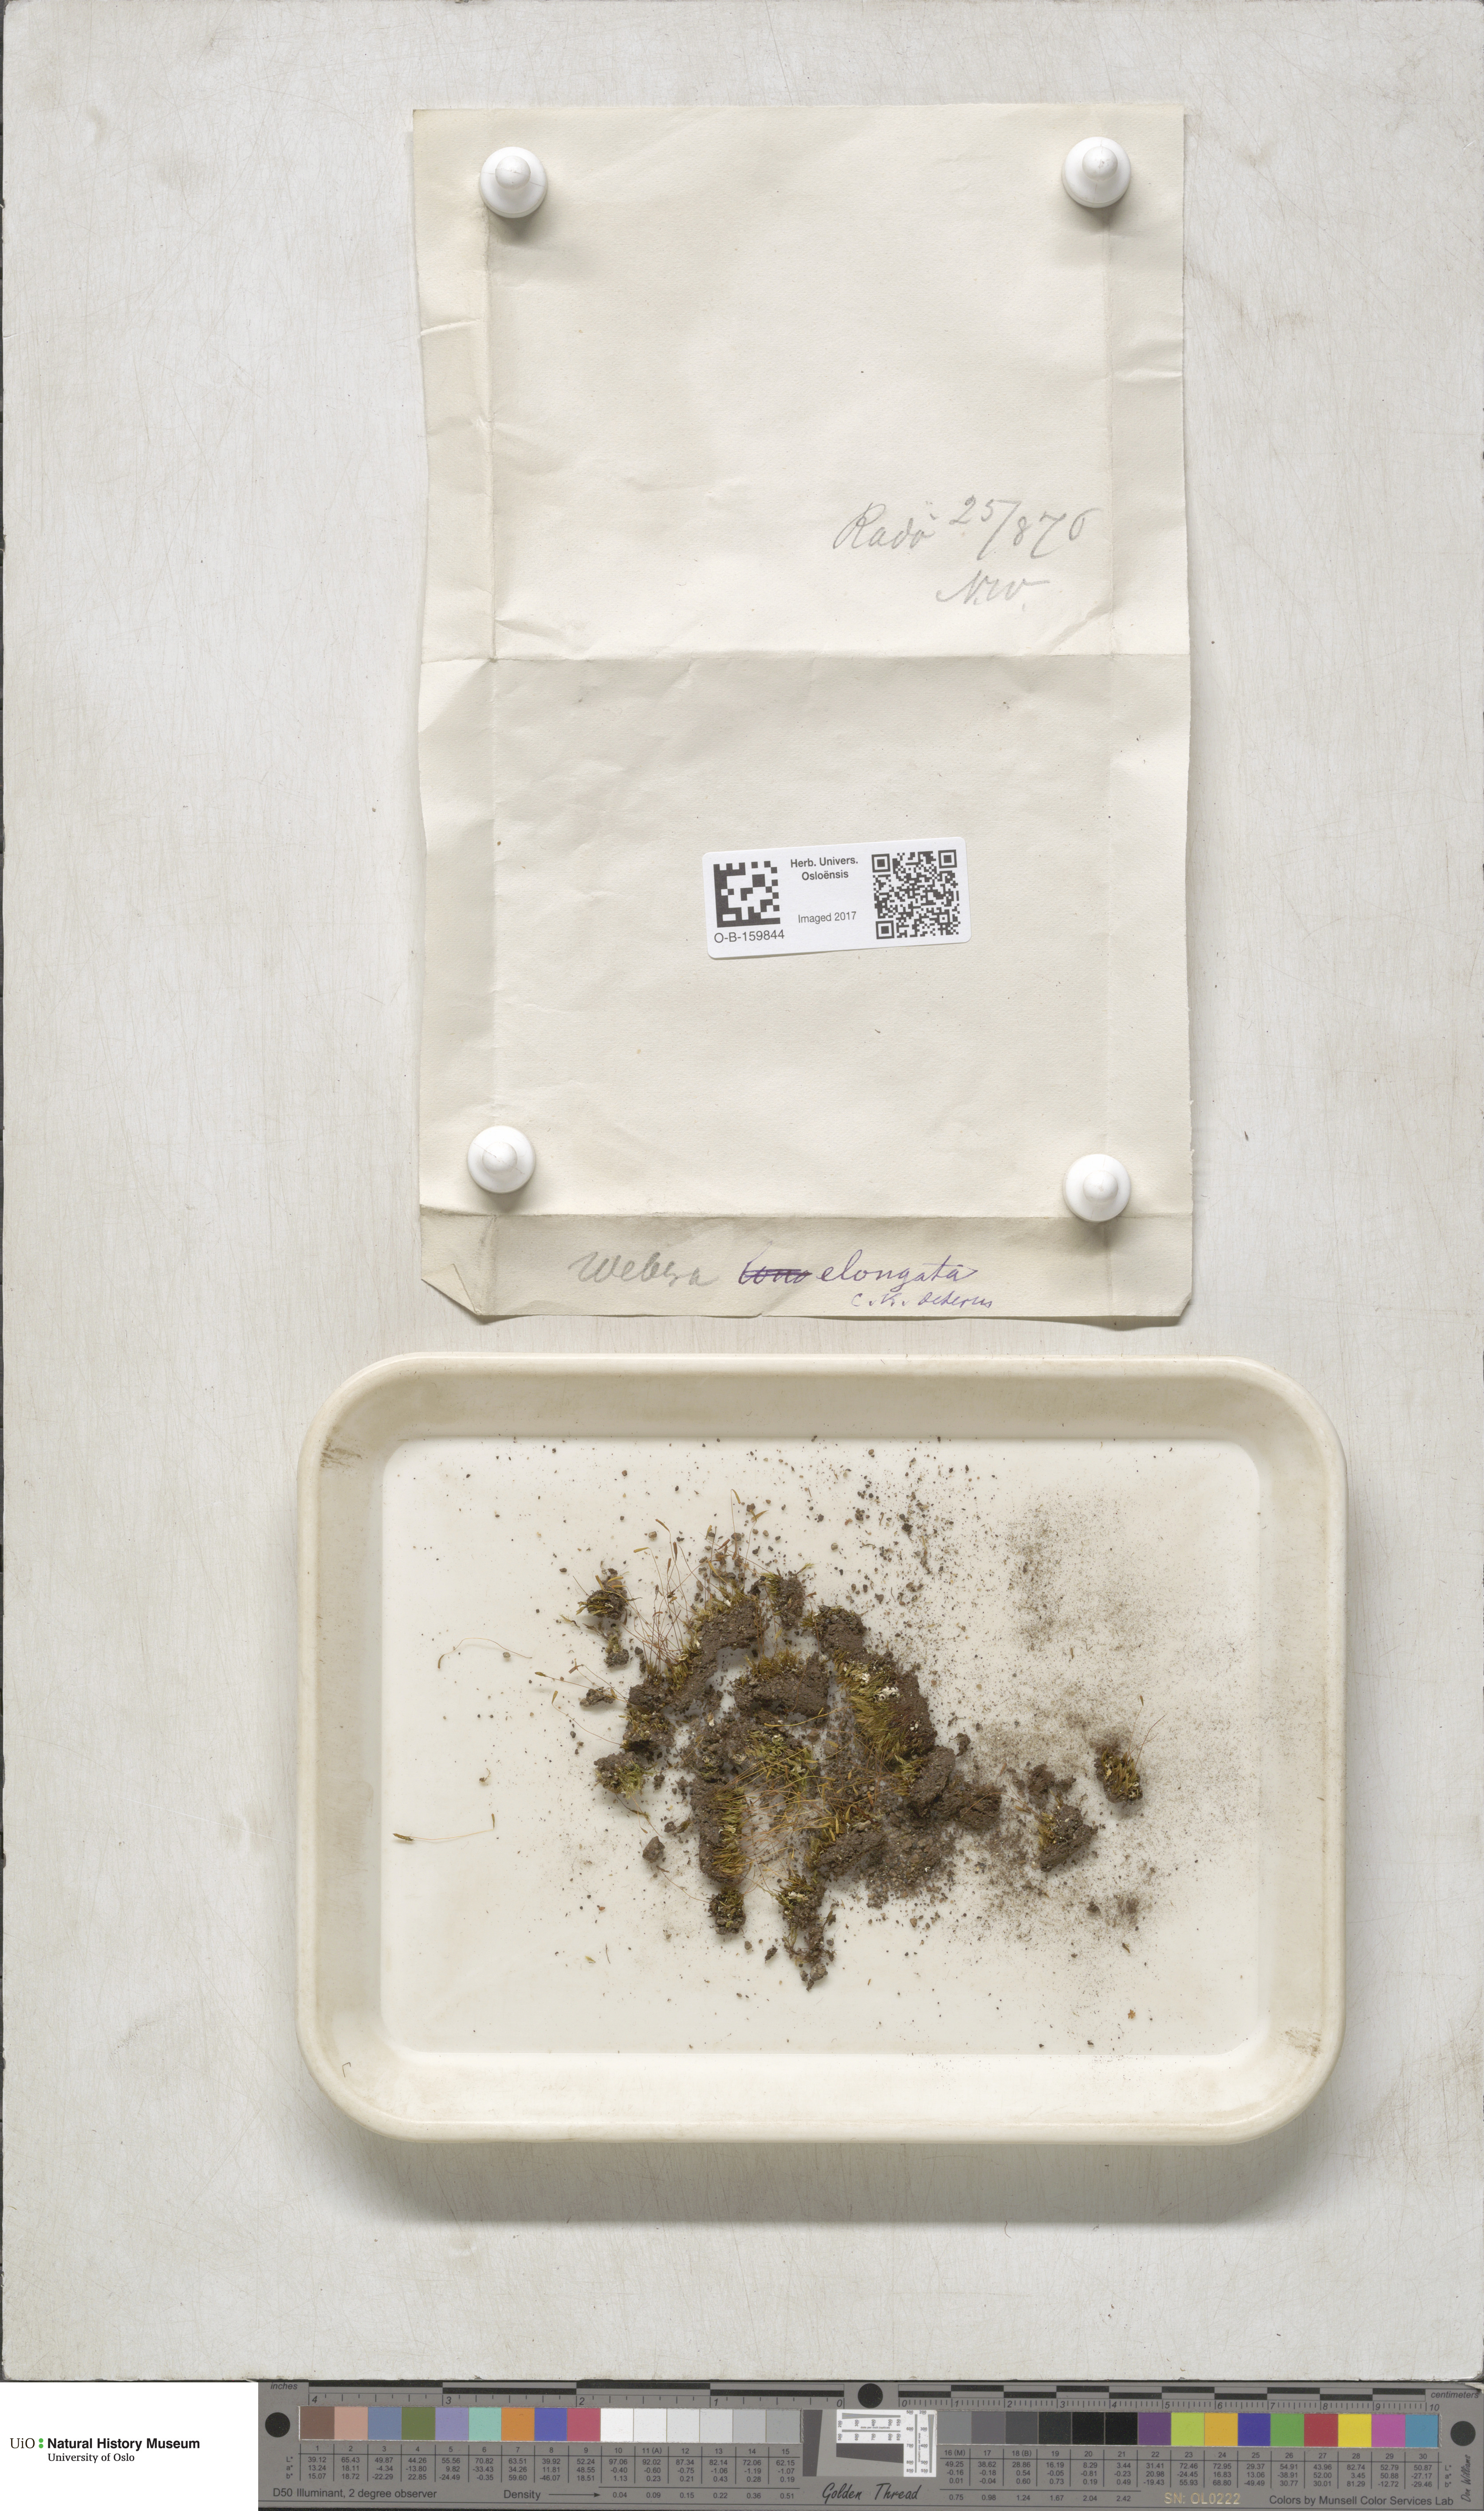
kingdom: Plantae
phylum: Bryophyta
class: Bryopsida
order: Bryales
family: Mniaceae
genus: Pohlia
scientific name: Pohlia elongata
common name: Long-fruited thread-moss
